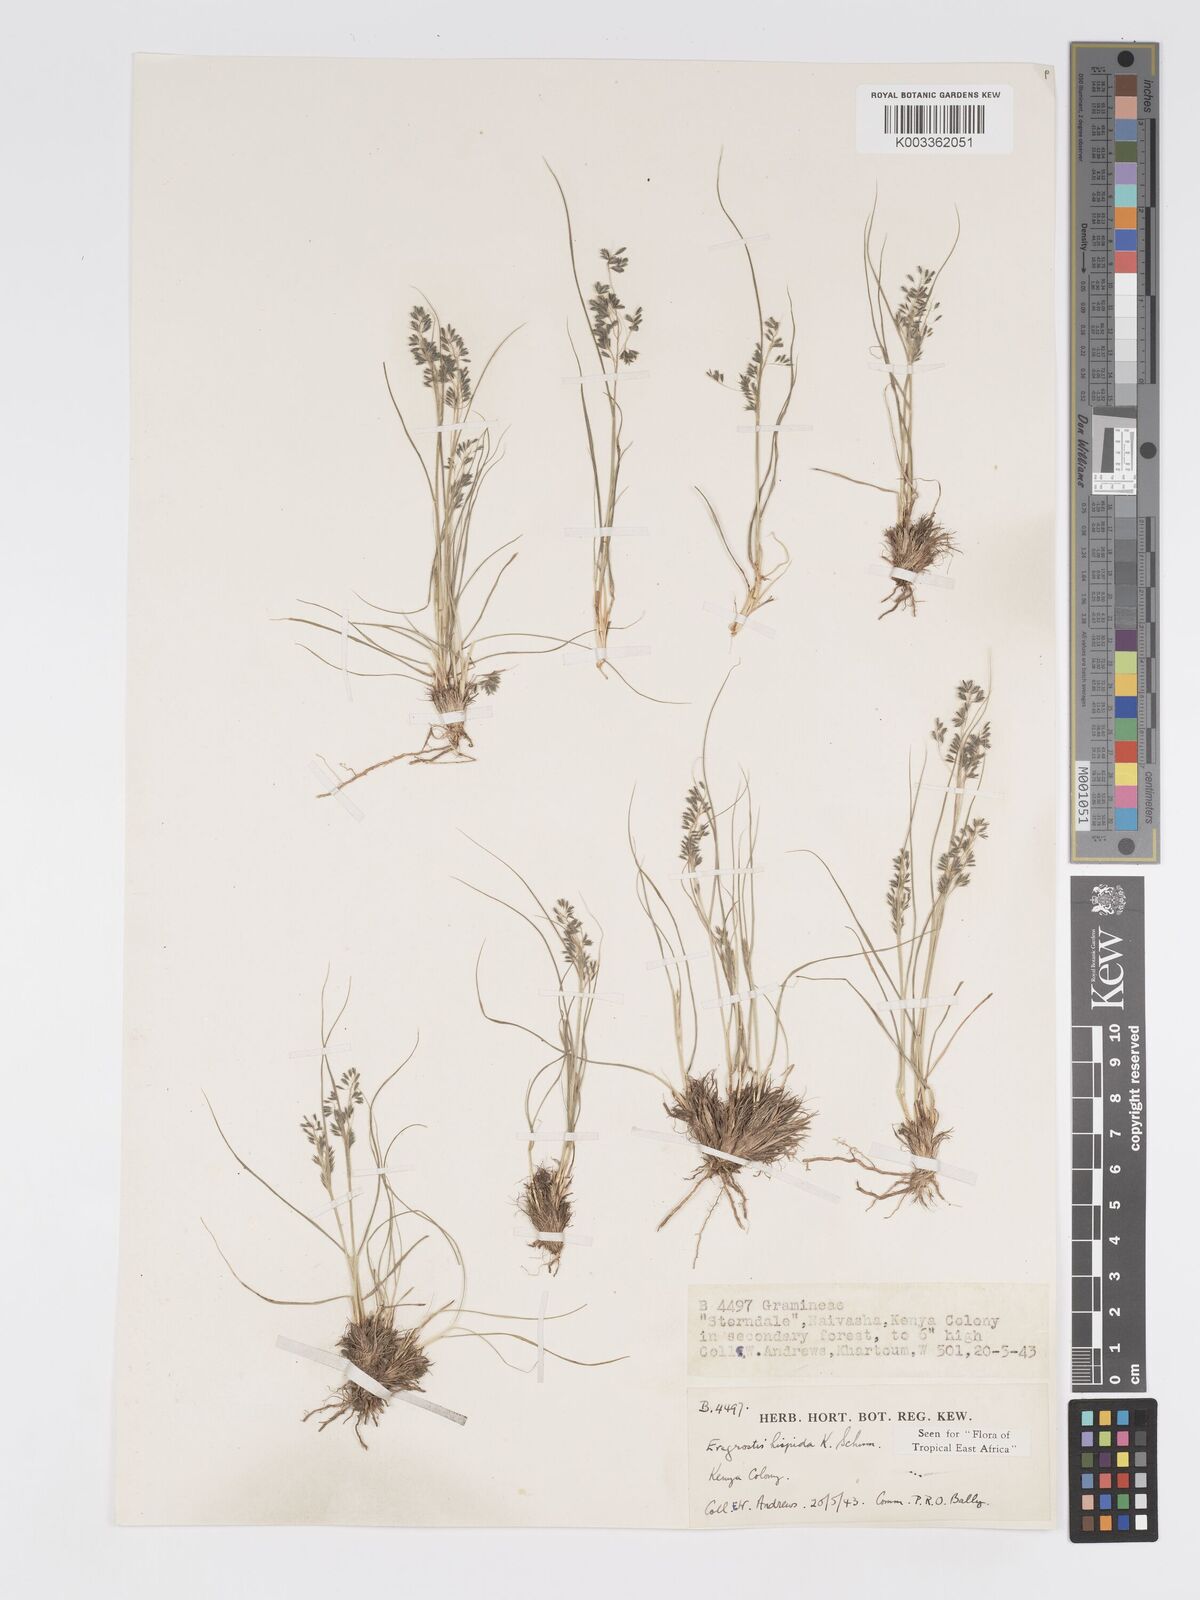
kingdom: Plantae
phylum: Tracheophyta
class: Liliopsida
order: Poales
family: Poaceae
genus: Eragrostis
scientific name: Eragrostis hispida
